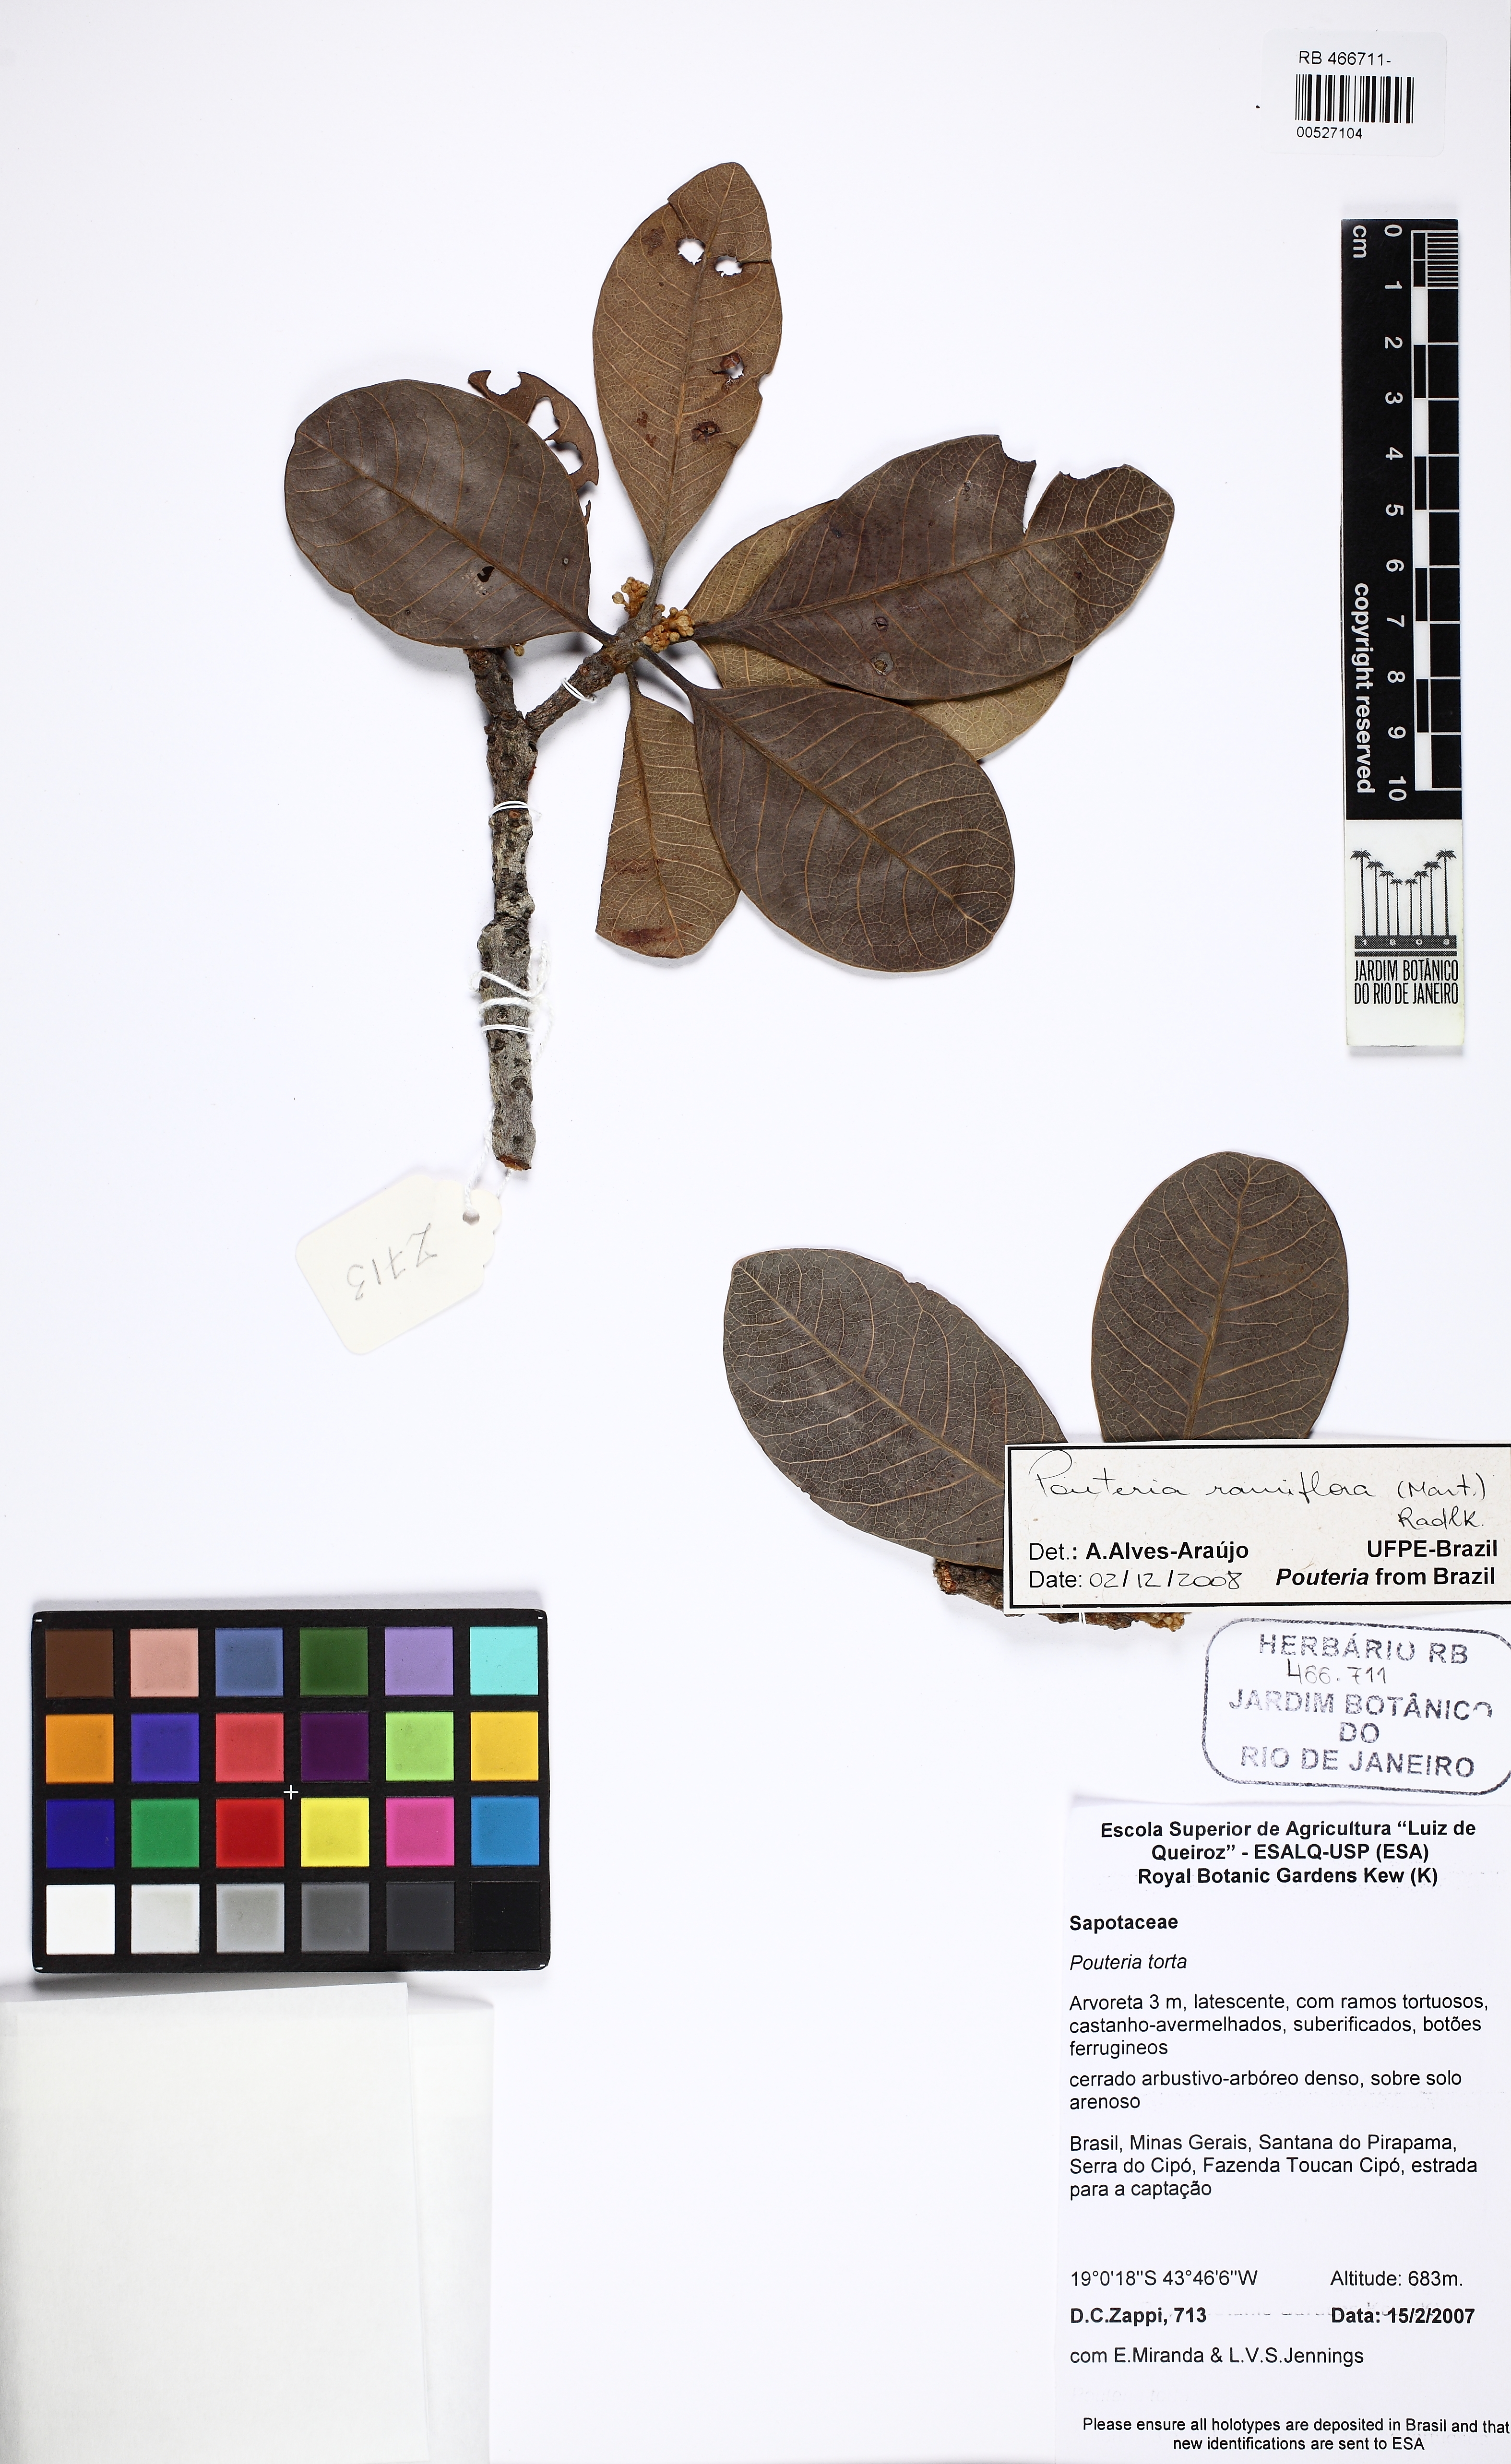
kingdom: Plantae
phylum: Tracheophyta
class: Magnoliopsida
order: Ericales
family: Sapotaceae
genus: Pouteria
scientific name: Pouteria ramiflora
